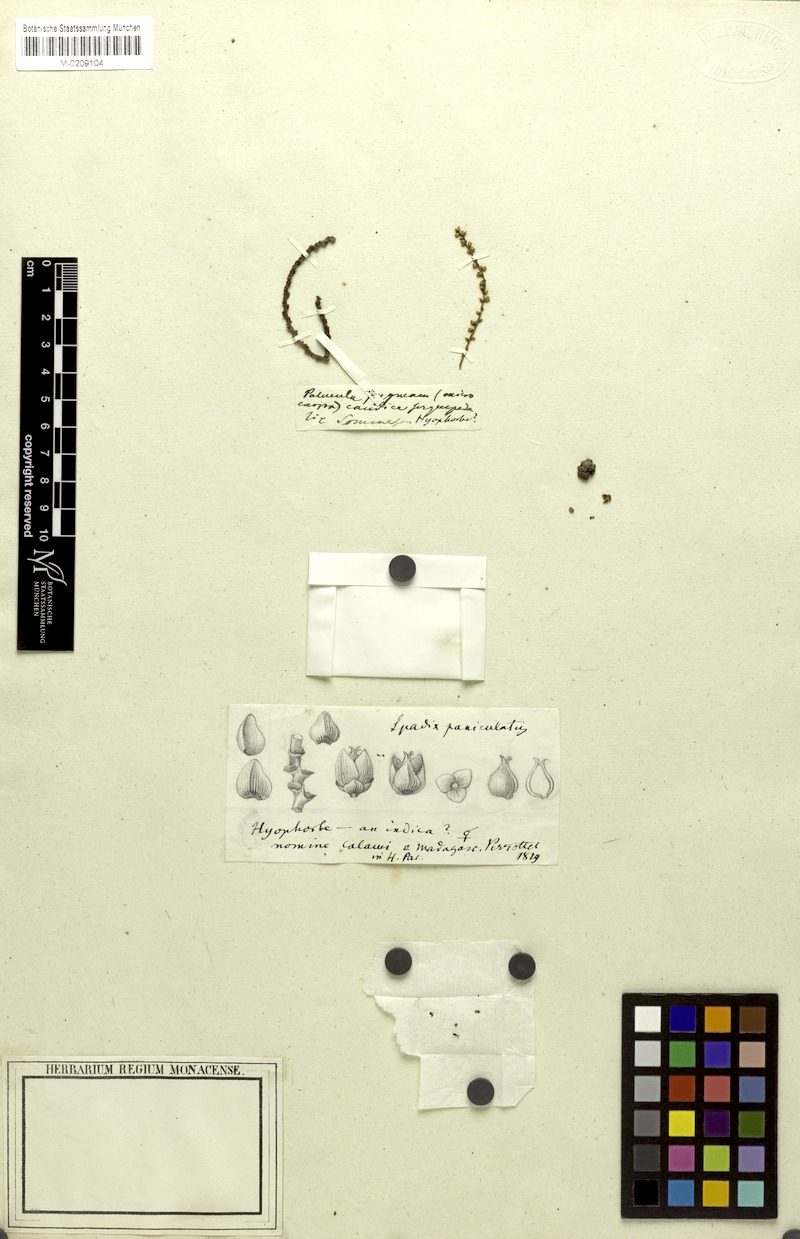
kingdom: Plantae
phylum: Tracheophyta
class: Liliopsida
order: Arecales
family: Arecaceae
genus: Hyophorbe
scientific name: Hyophorbe indica
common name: Palmiste poison
